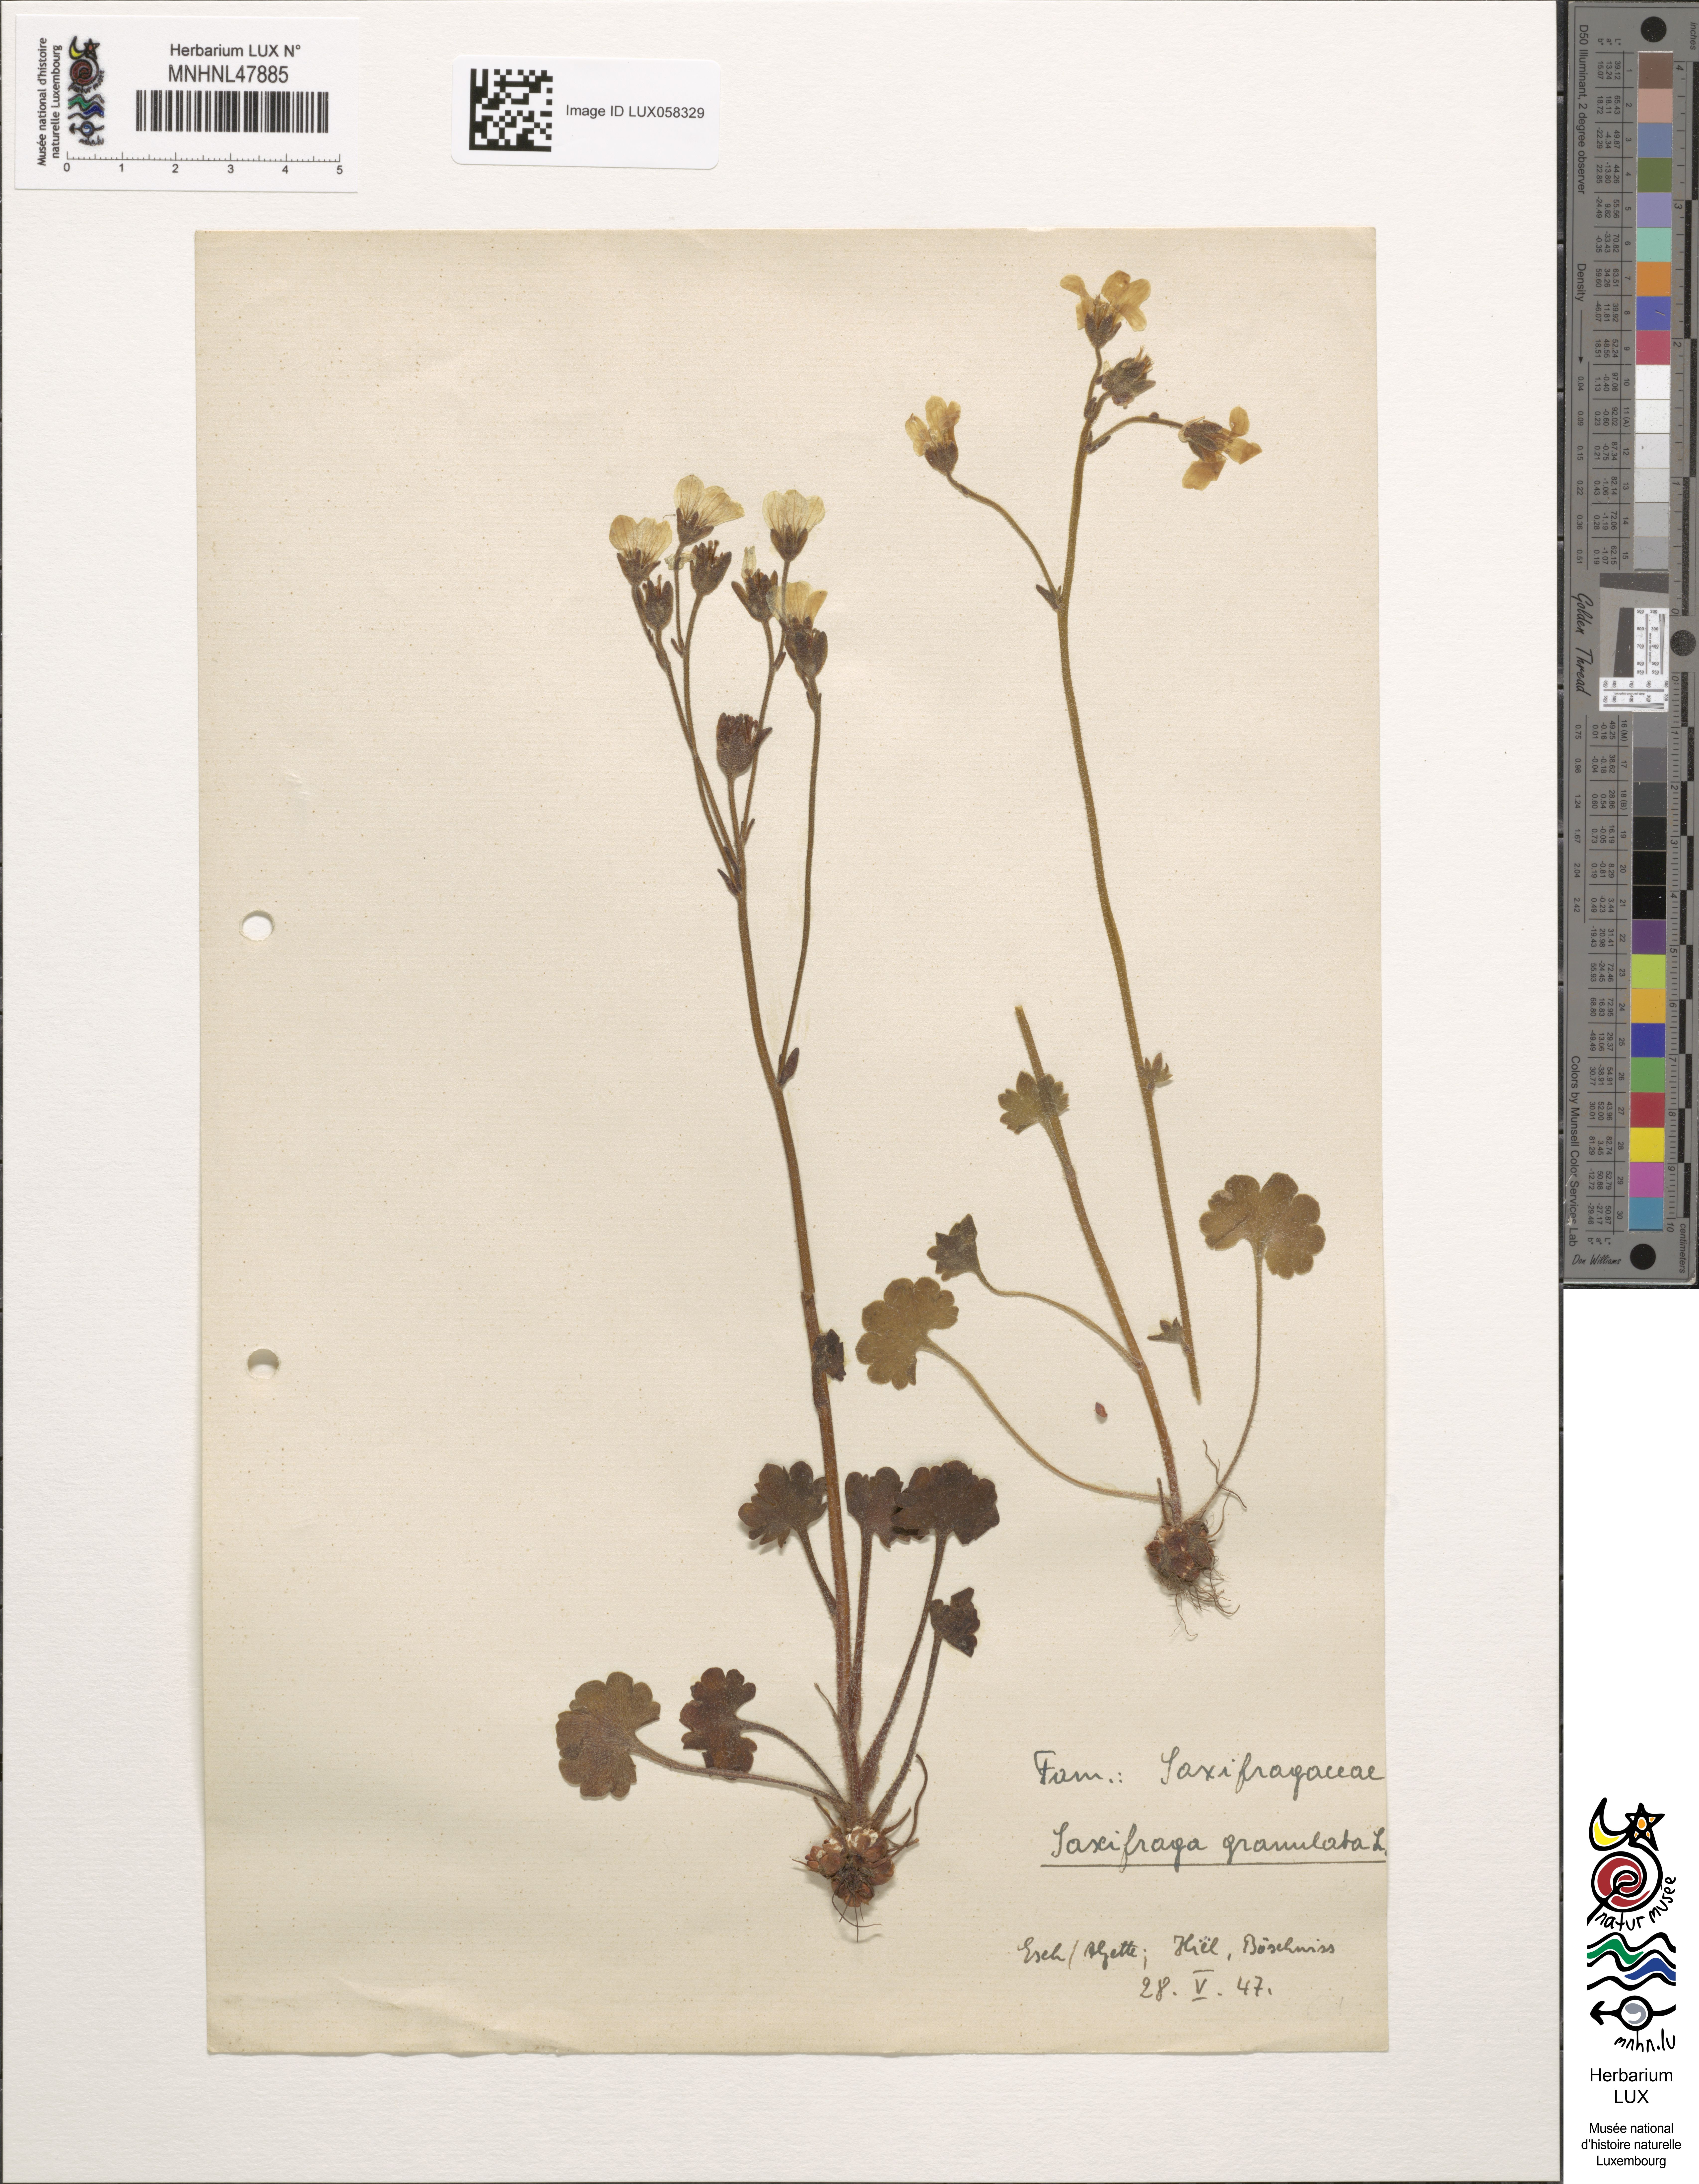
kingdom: Plantae
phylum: Tracheophyta
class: Magnoliopsida
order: Saxifragales
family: Saxifragaceae
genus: Saxifraga
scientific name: Saxifraga granulata
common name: Meadow saxifrage
